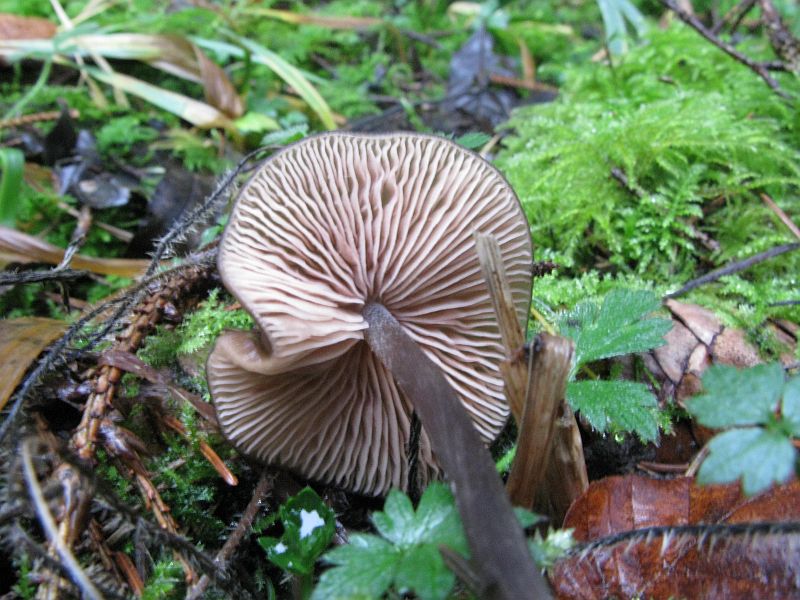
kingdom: Fungi
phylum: Basidiomycota
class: Agaricomycetes
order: Agaricales
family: Entolomataceae
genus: Entoloma
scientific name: Entoloma hebes
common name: krat-rødblad
